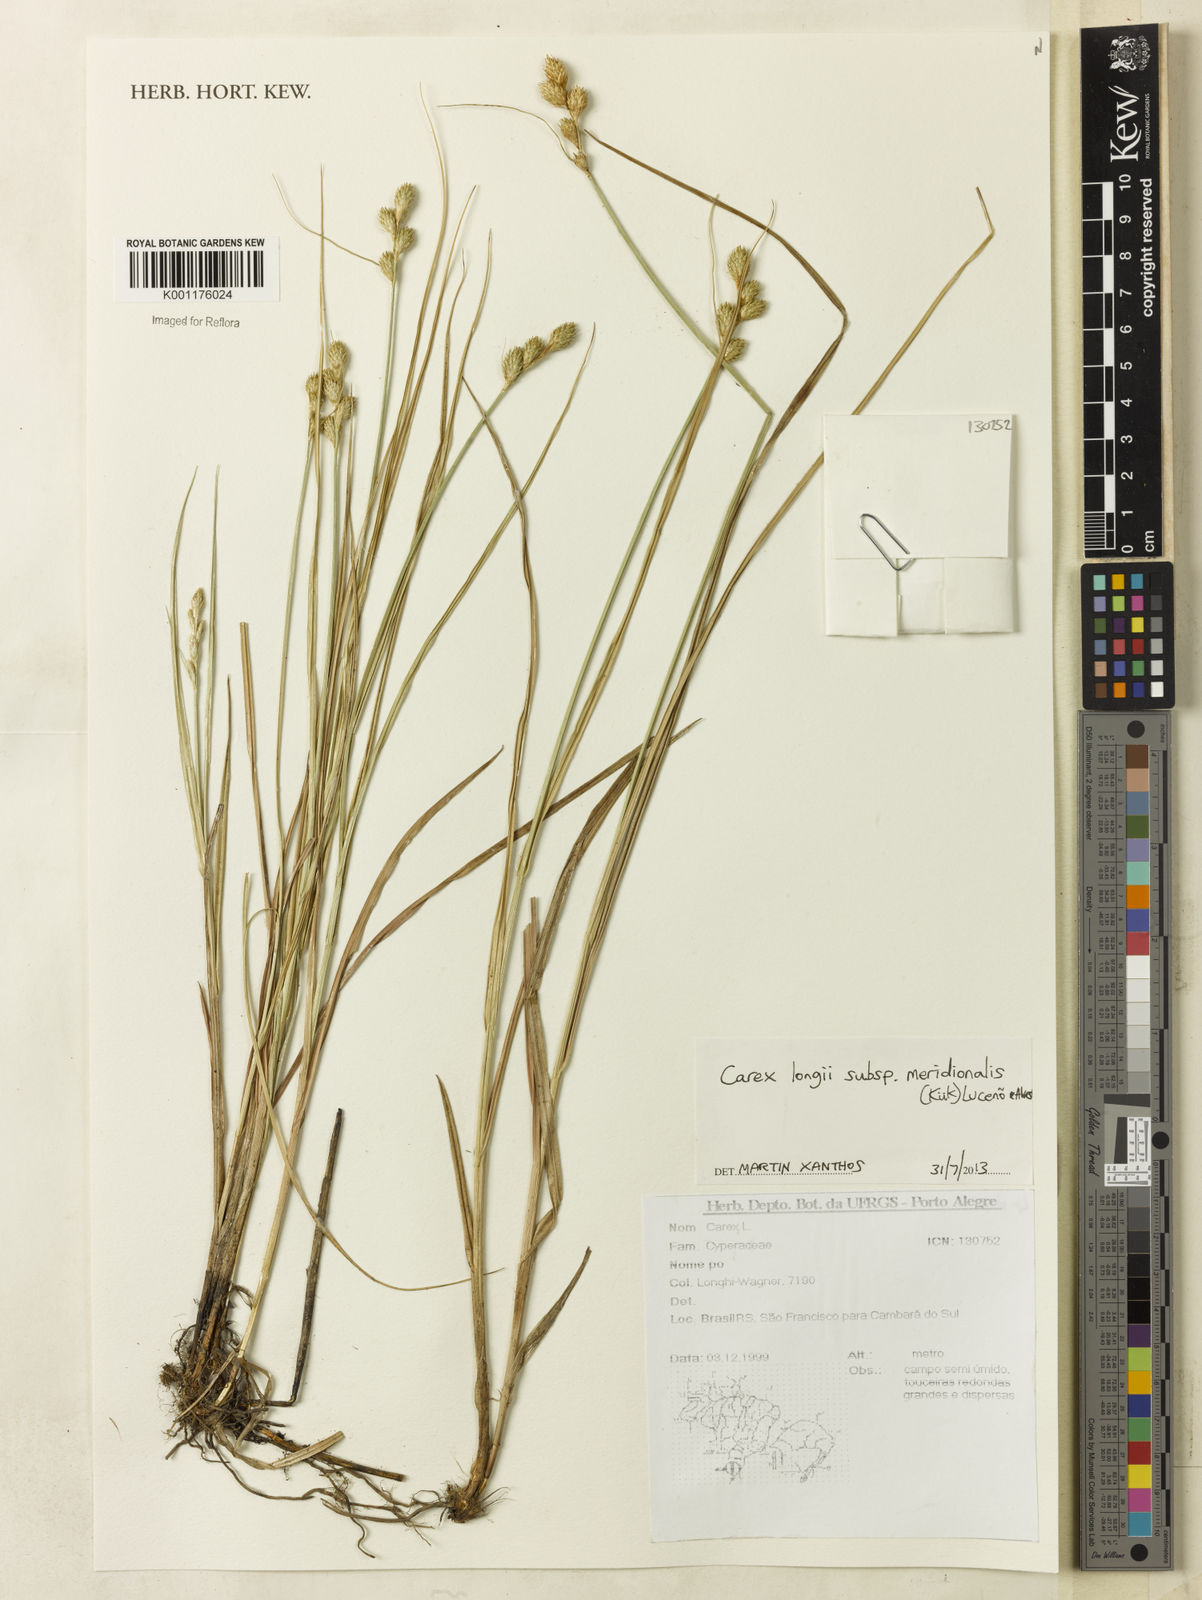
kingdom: Plantae
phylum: Tracheophyta
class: Liliopsida
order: Poales
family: Cyperaceae
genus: Carex
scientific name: Carex meridionalis
